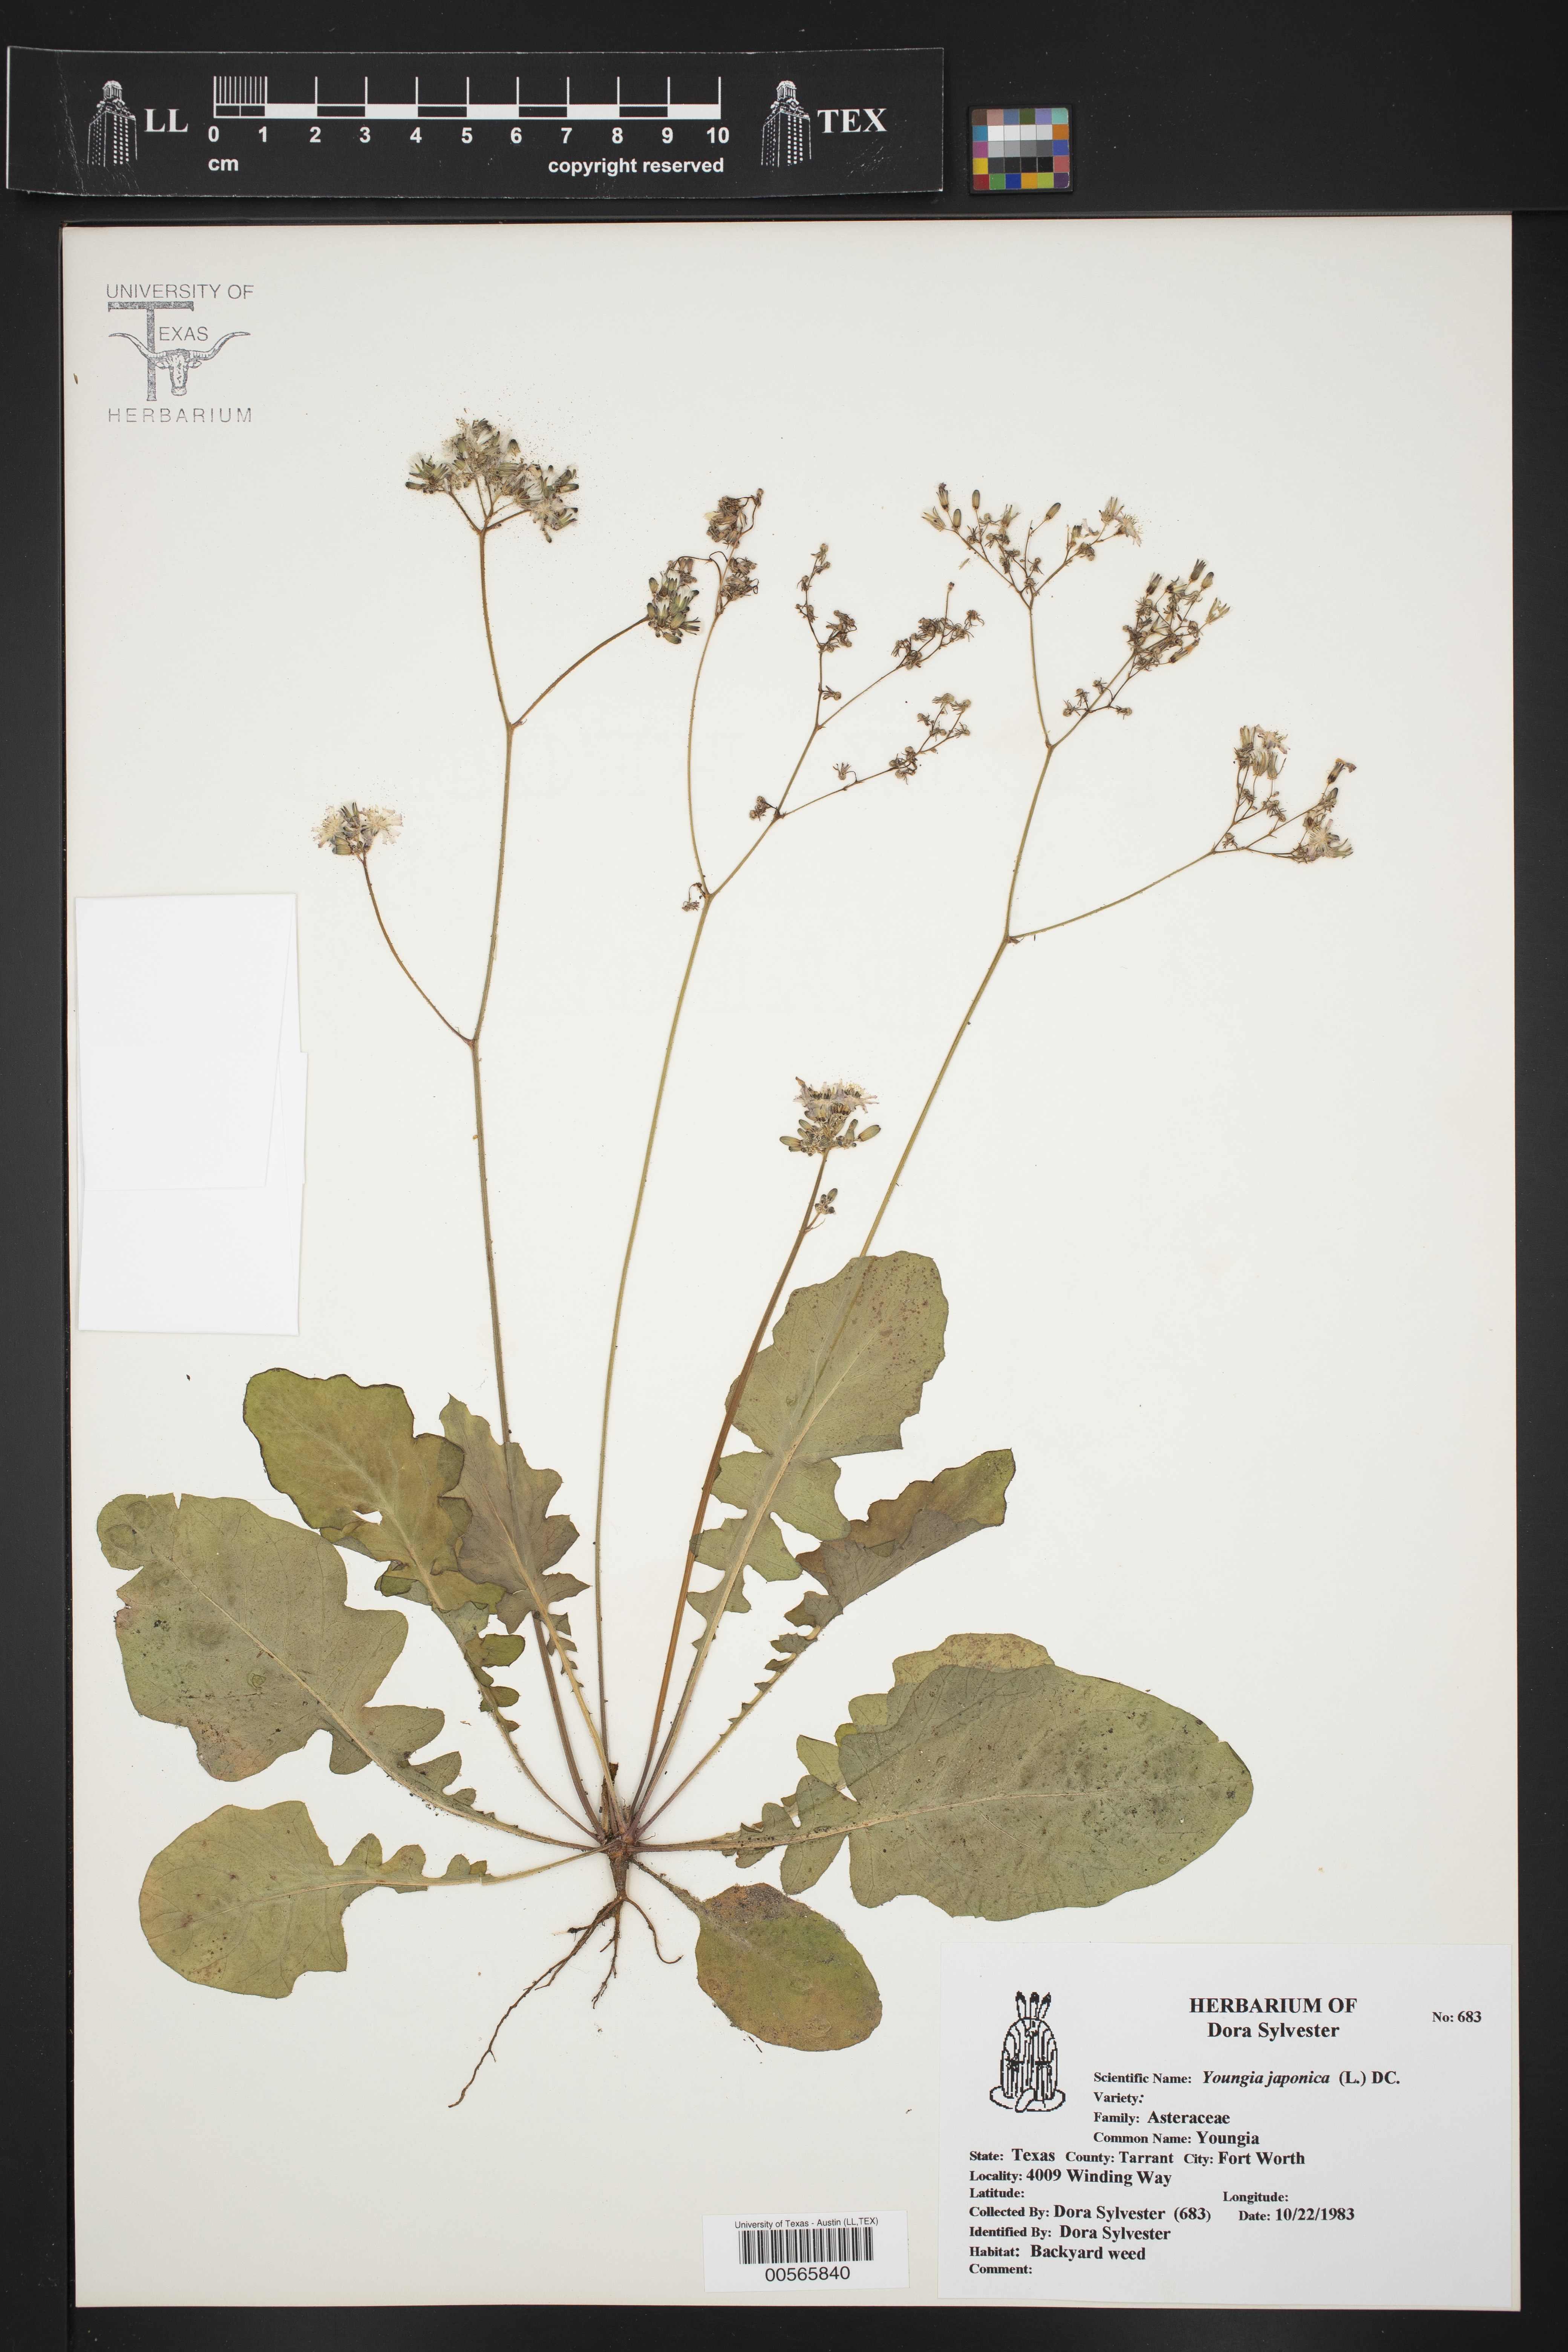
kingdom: Plantae
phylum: Tracheophyta
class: Magnoliopsida
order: Asterales
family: Asteraceae
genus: Youngia
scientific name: Youngia japonica
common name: Oriental false hawksbeard
